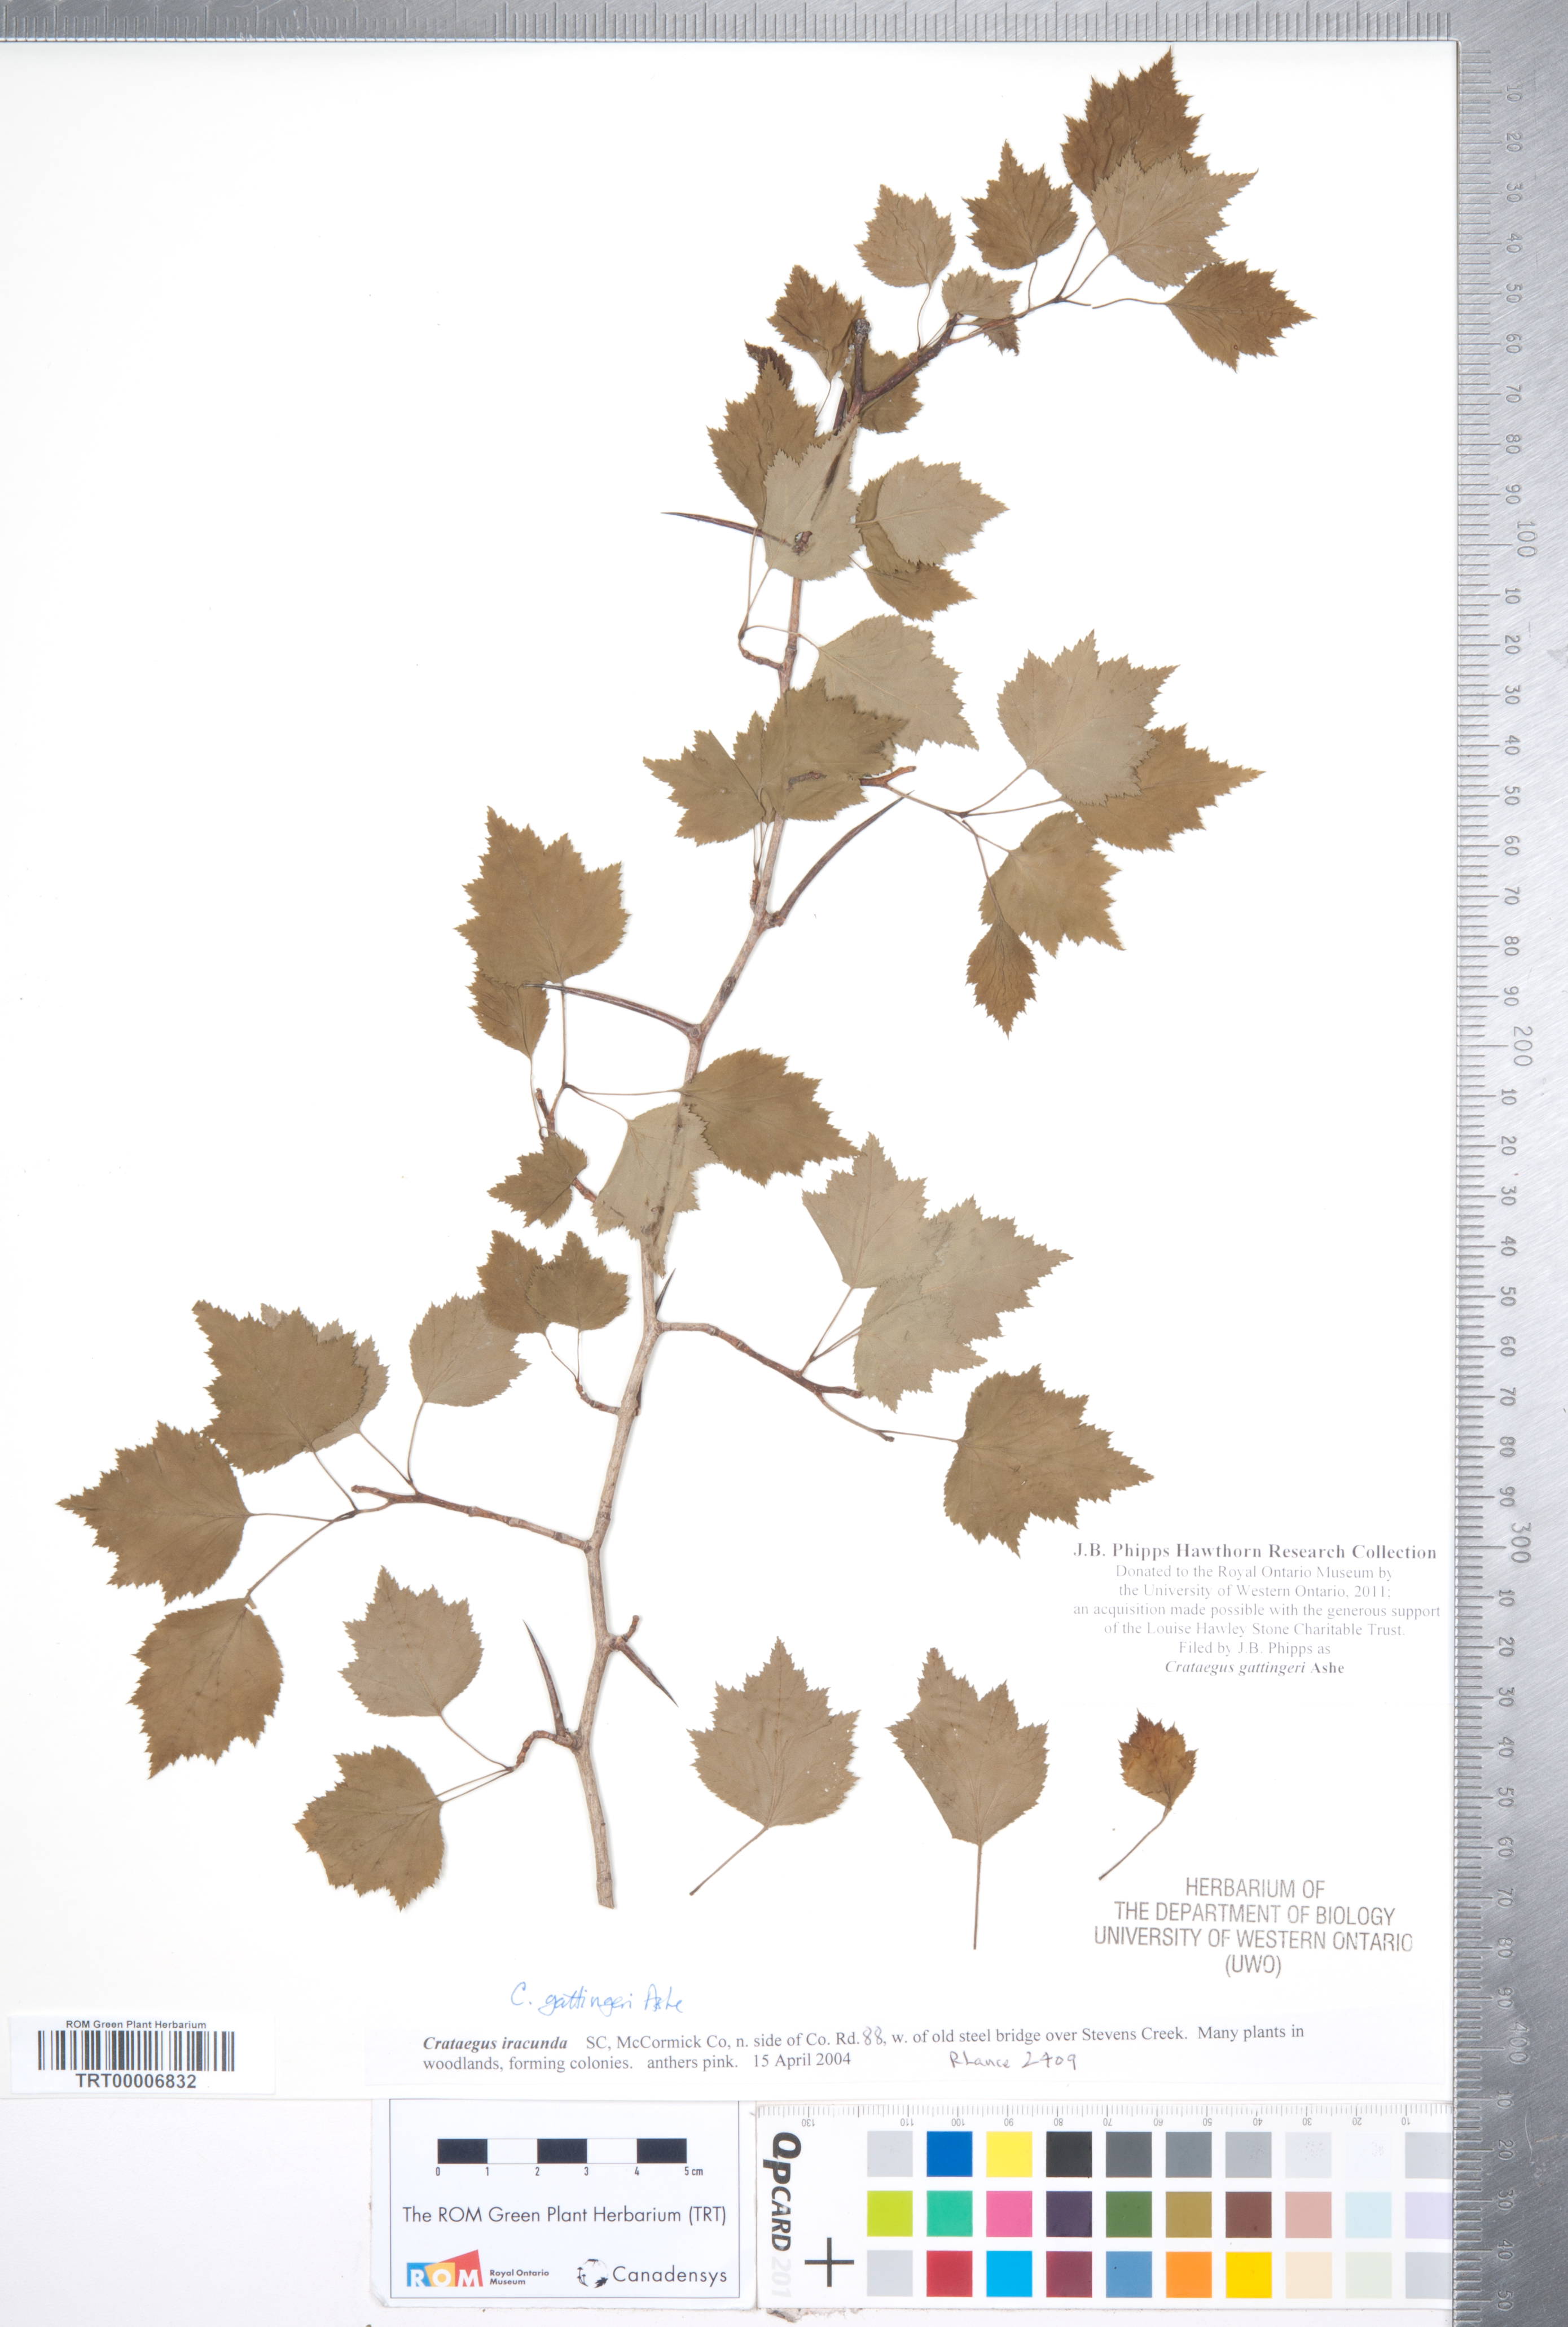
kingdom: Plantae
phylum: Tracheophyta
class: Magnoliopsida
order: Rosales
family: Rosaceae
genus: Crataegus
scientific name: Crataegus gattingeri
